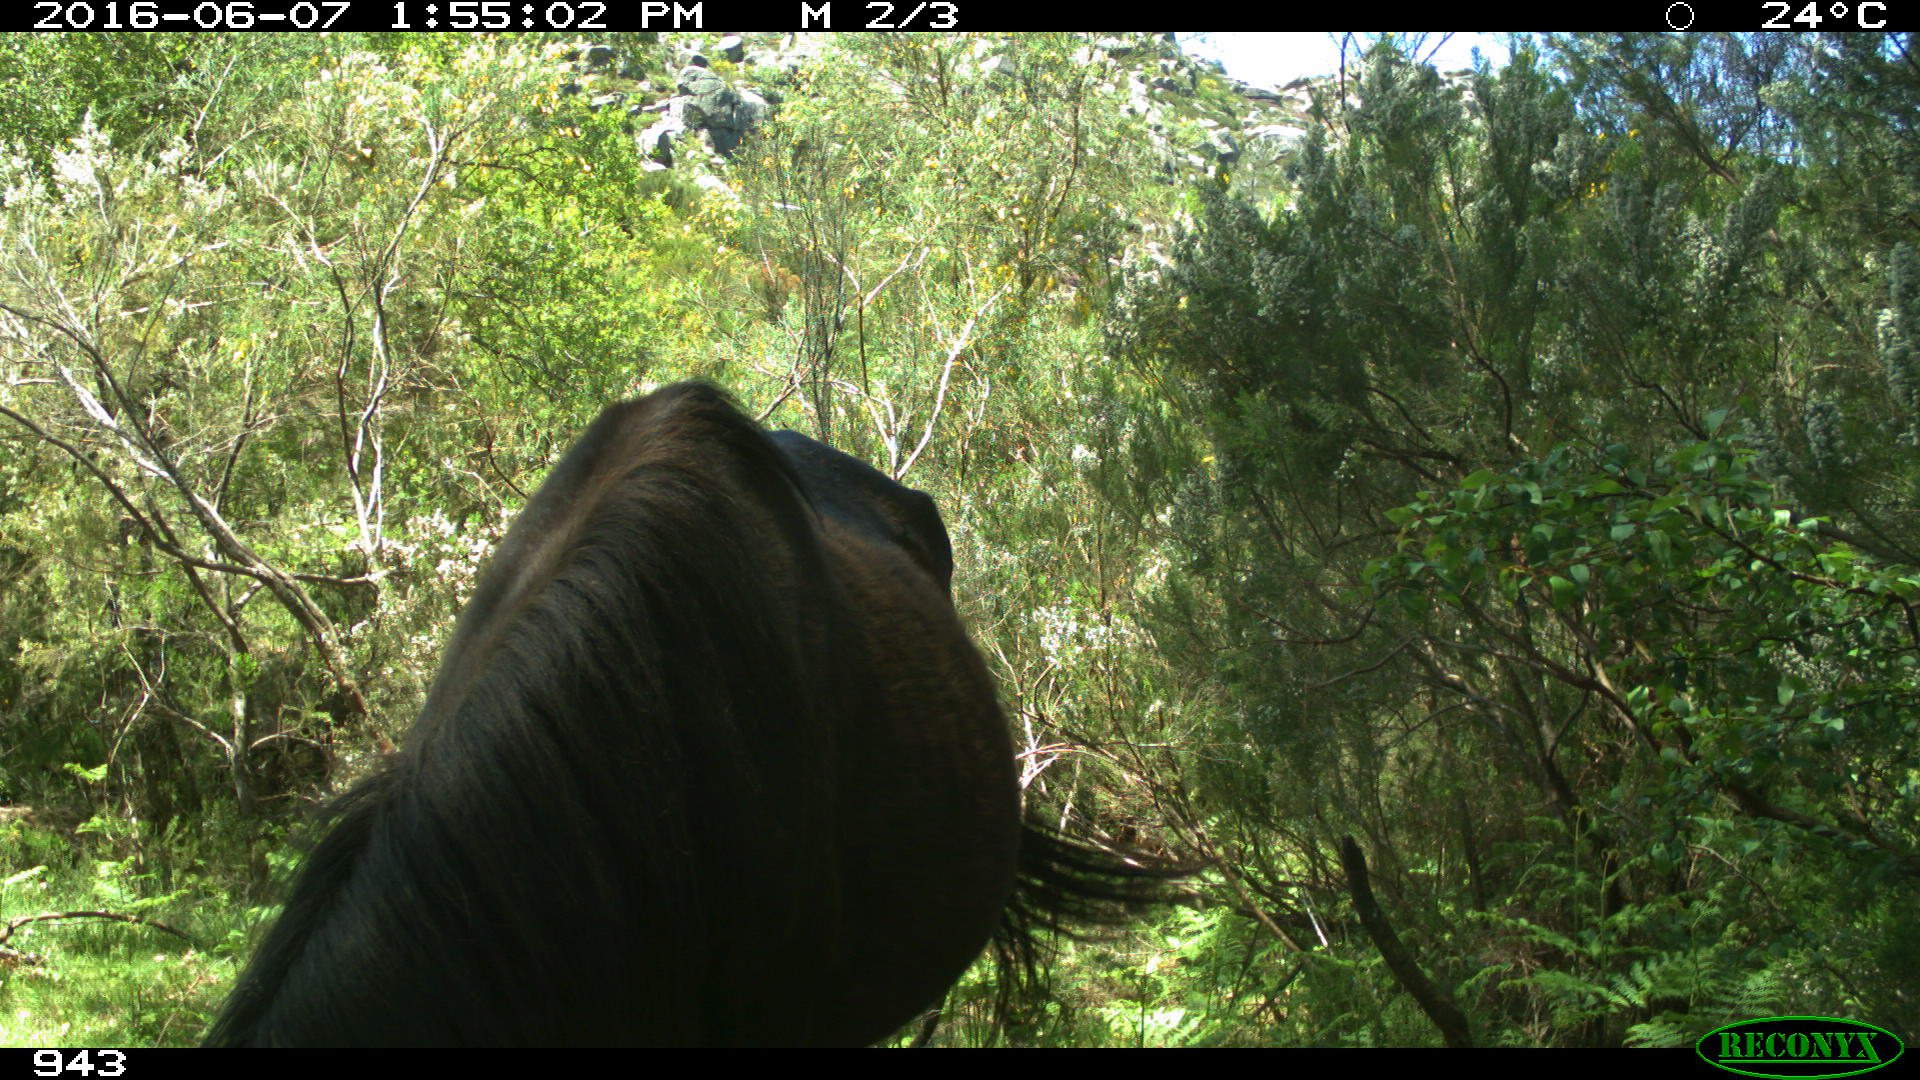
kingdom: Animalia
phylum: Chordata
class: Mammalia
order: Perissodactyla
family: Equidae
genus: Equus
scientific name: Equus caballus
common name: Horse
